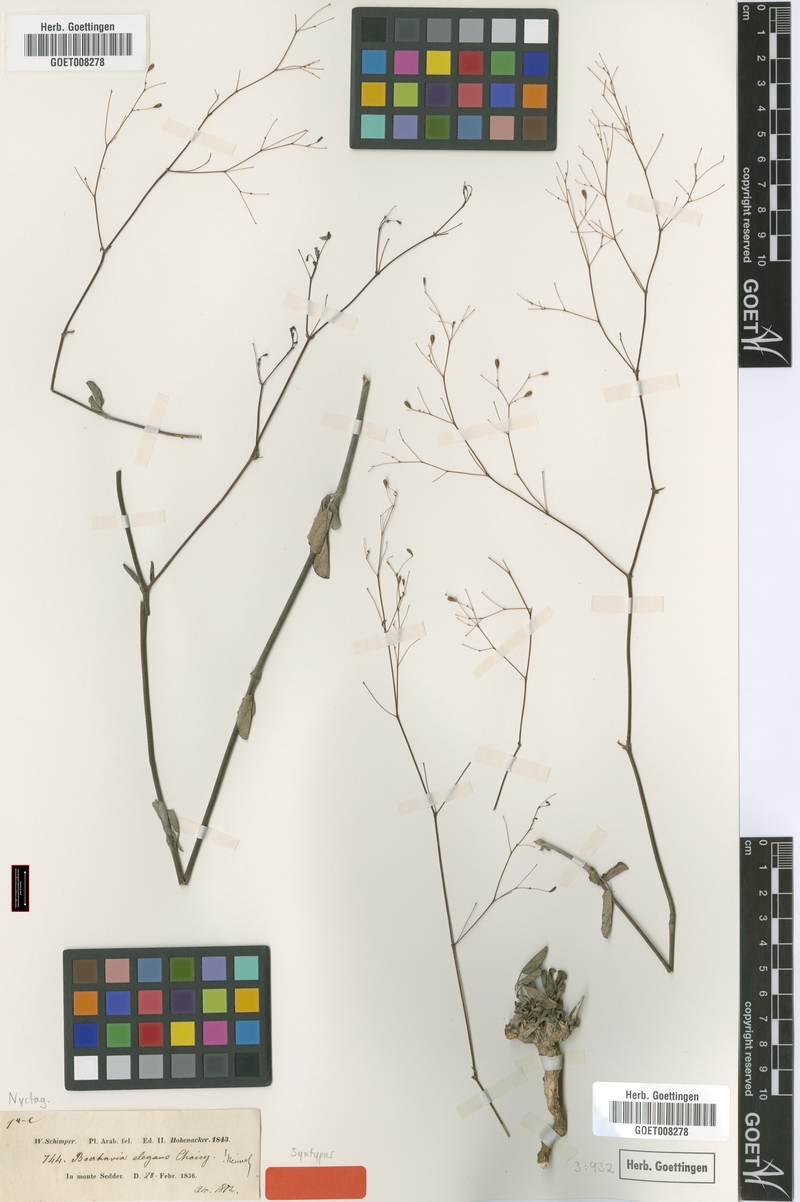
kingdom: Plantae
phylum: Tracheophyta
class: Magnoliopsida
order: Caryophyllales
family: Nyctaginaceae
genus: Boerhavia
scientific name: Boerhavia elegans
